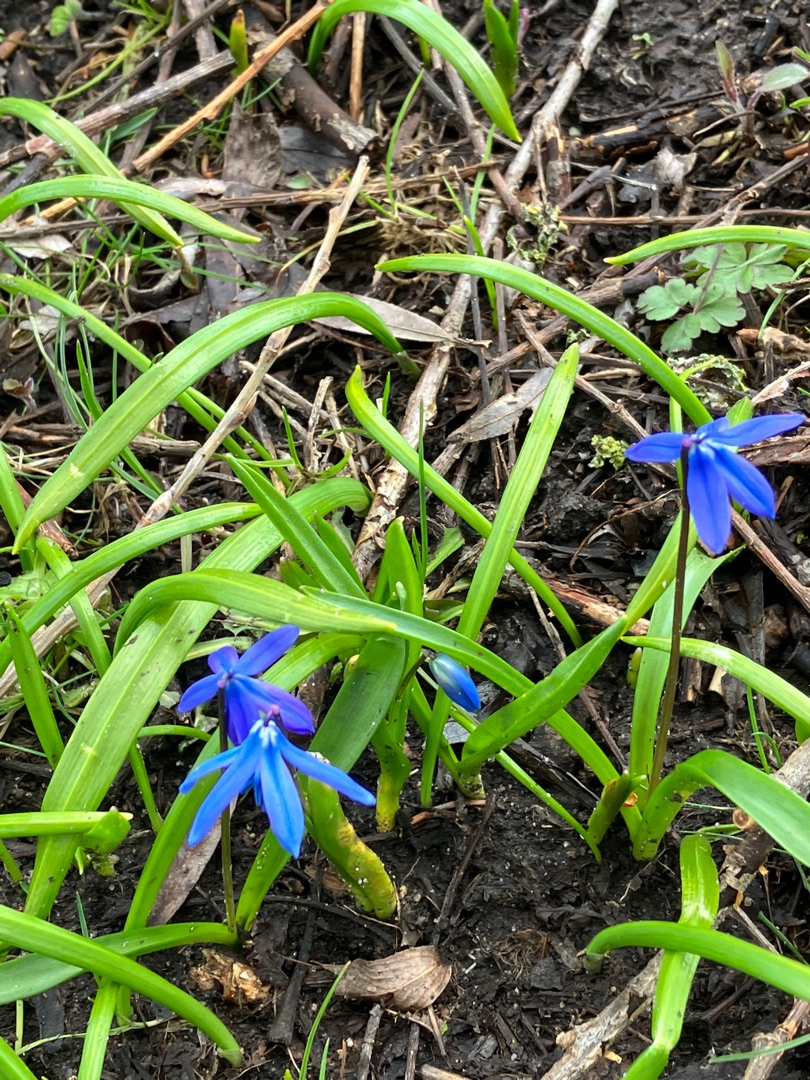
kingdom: Plantae
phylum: Tracheophyta
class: Liliopsida
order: Asparagales
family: Asparagaceae
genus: Scilla
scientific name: Scilla siberica
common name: Russisk skilla
